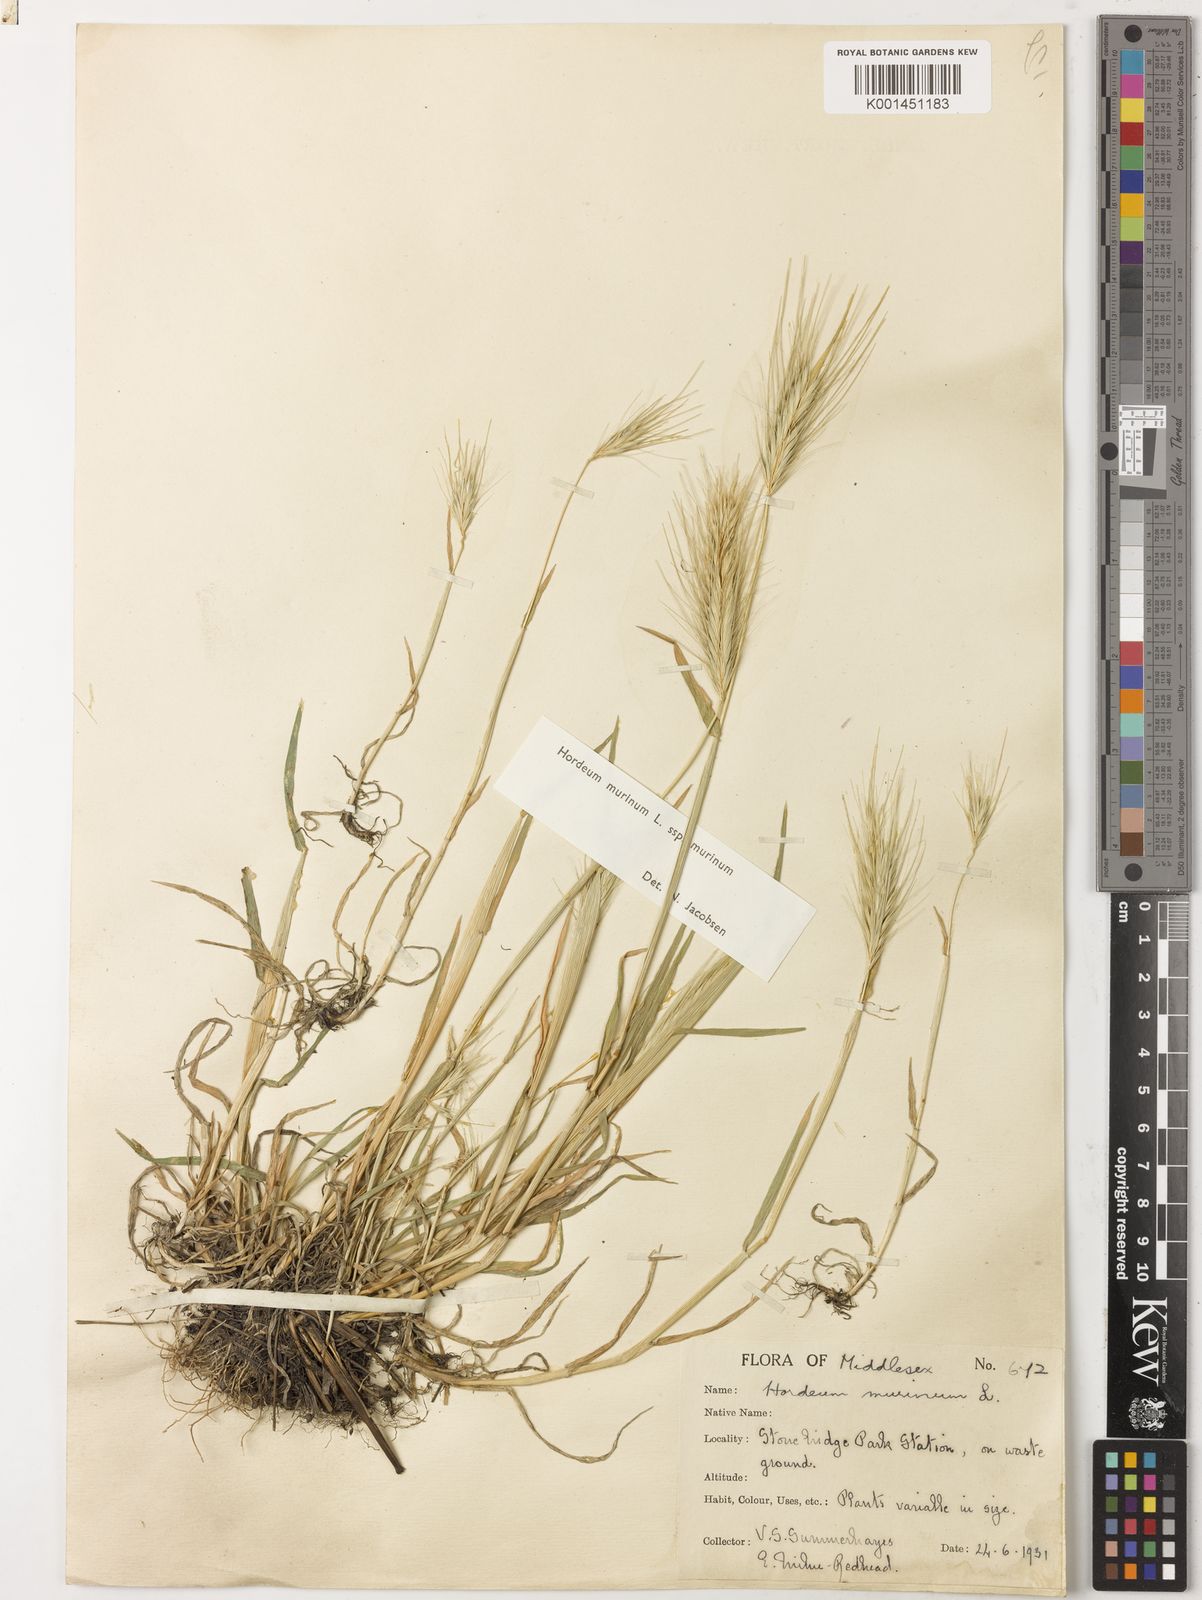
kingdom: Plantae
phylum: Tracheophyta
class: Liliopsida
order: Poales
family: Poaceae
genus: Hordeum
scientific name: Hordeum murinum
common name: Wall barley
